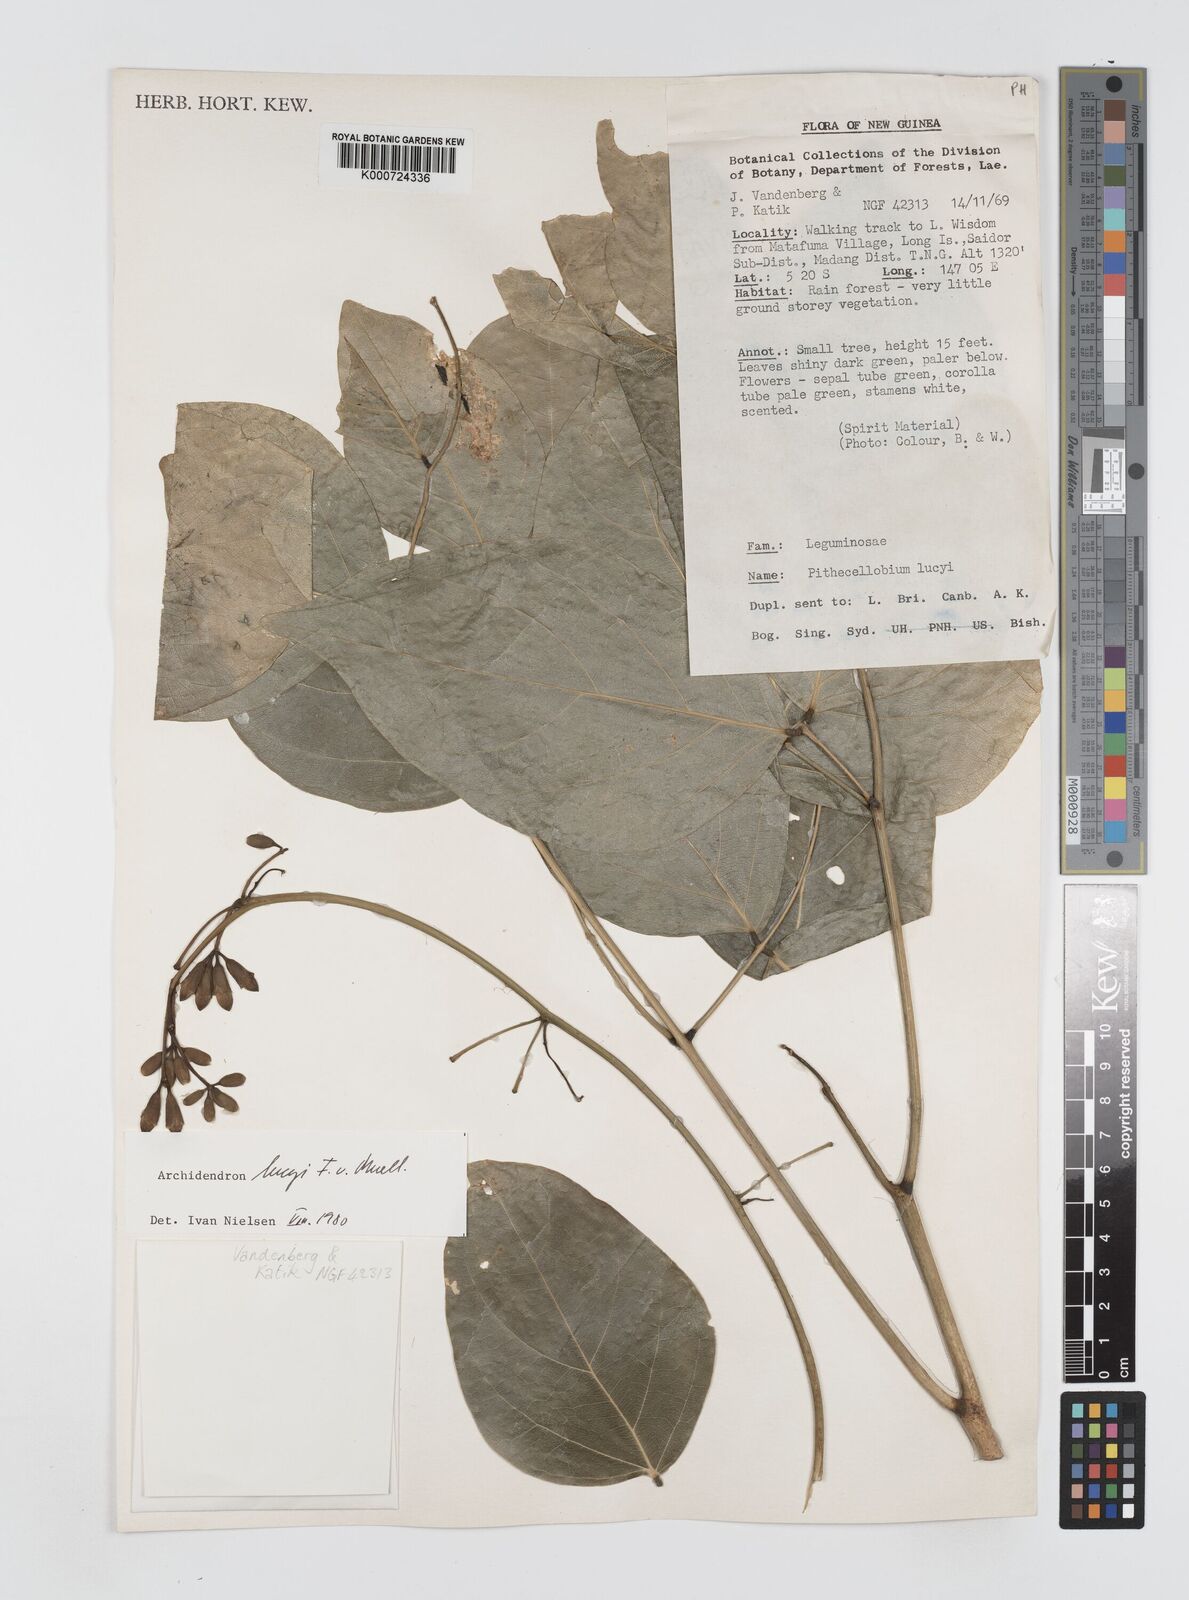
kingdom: Plantae
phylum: Tracheophyta
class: Magnoliopsida
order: Fabales
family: Fabaceae
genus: Archidendron
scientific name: Archidendron lucyi
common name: Scarlet bean
